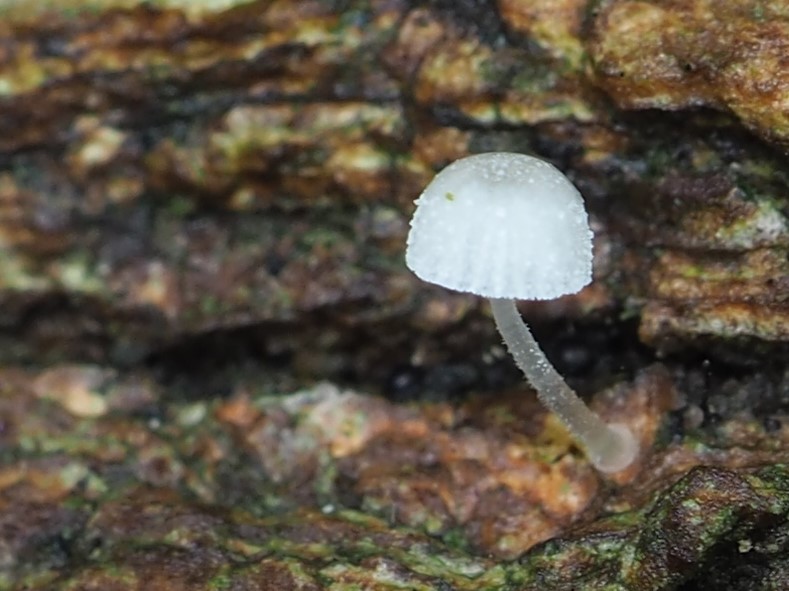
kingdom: Fungi
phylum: Basidiomycota
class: Agaricomycetes
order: Agaricales
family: Mycenaceae
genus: Mycena
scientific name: Mycena tenerrima
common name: pudret huesvamp
